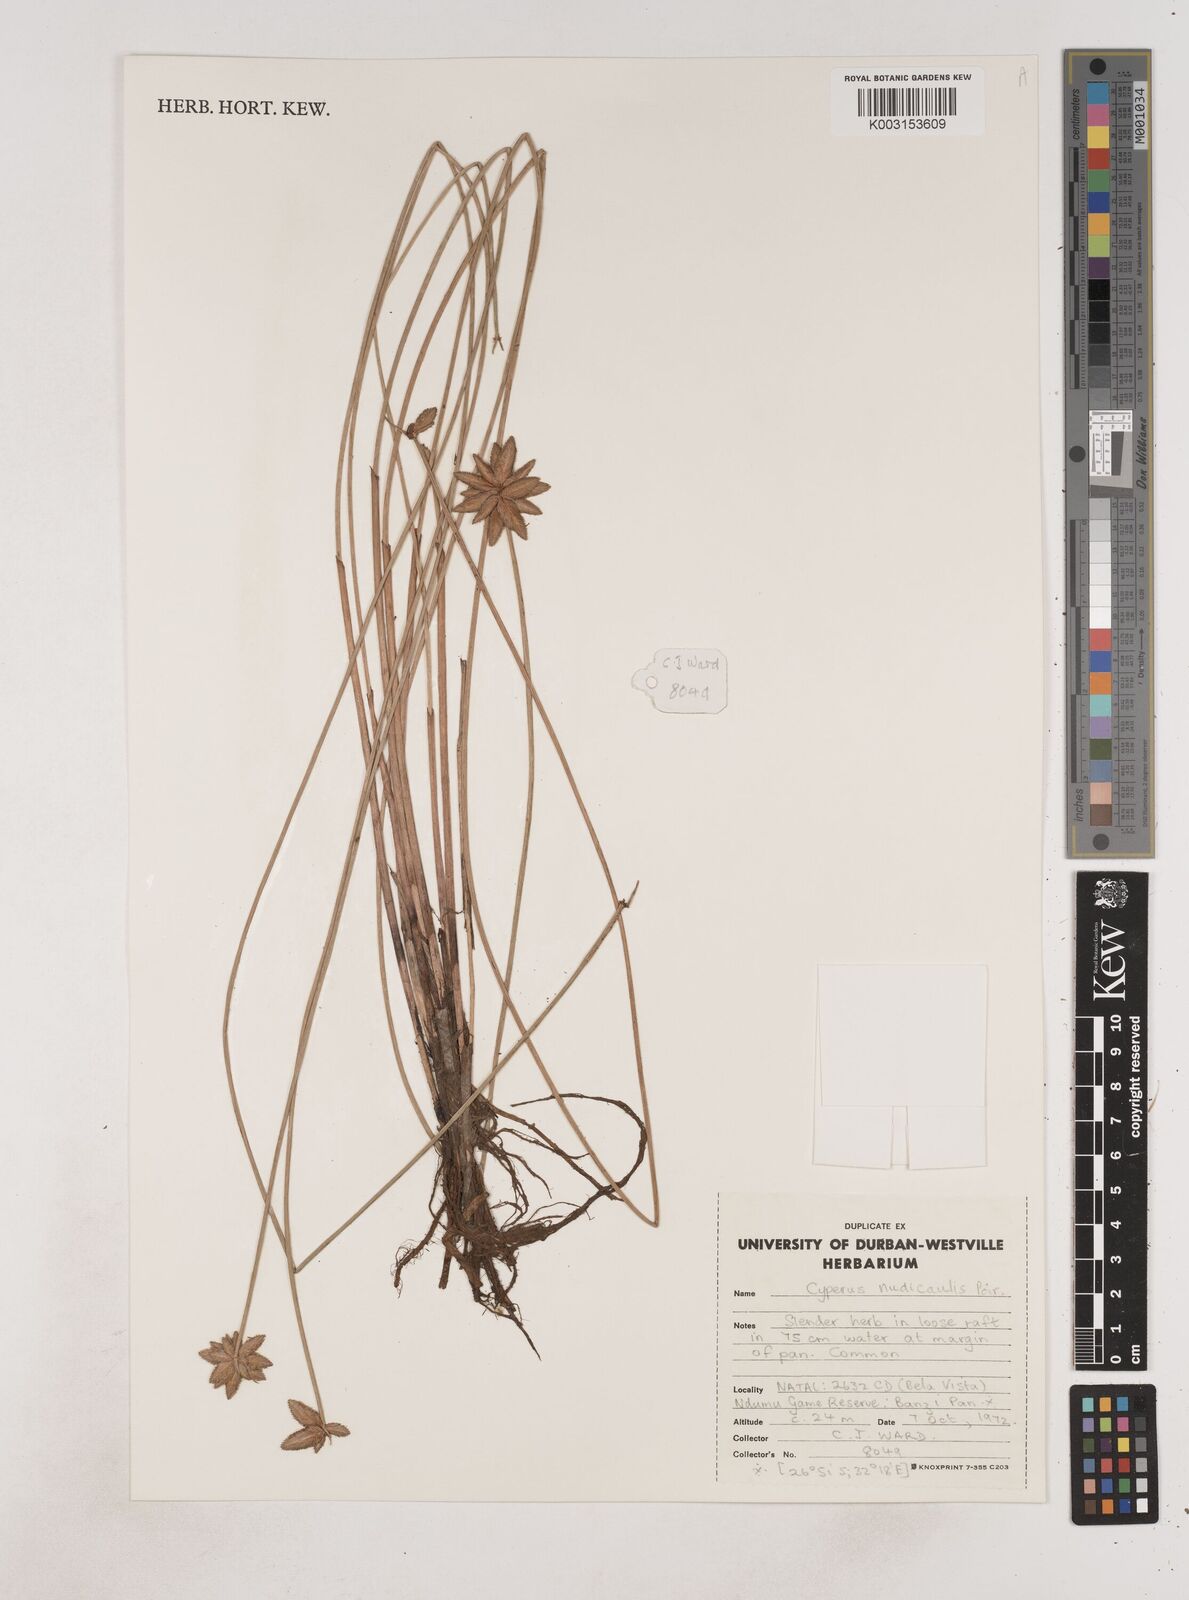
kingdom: Plantae
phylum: Tracheophyta
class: Liliopsida
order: Poales
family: Cyperaceae
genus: Cyperus
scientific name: Cyperus pectinatus
